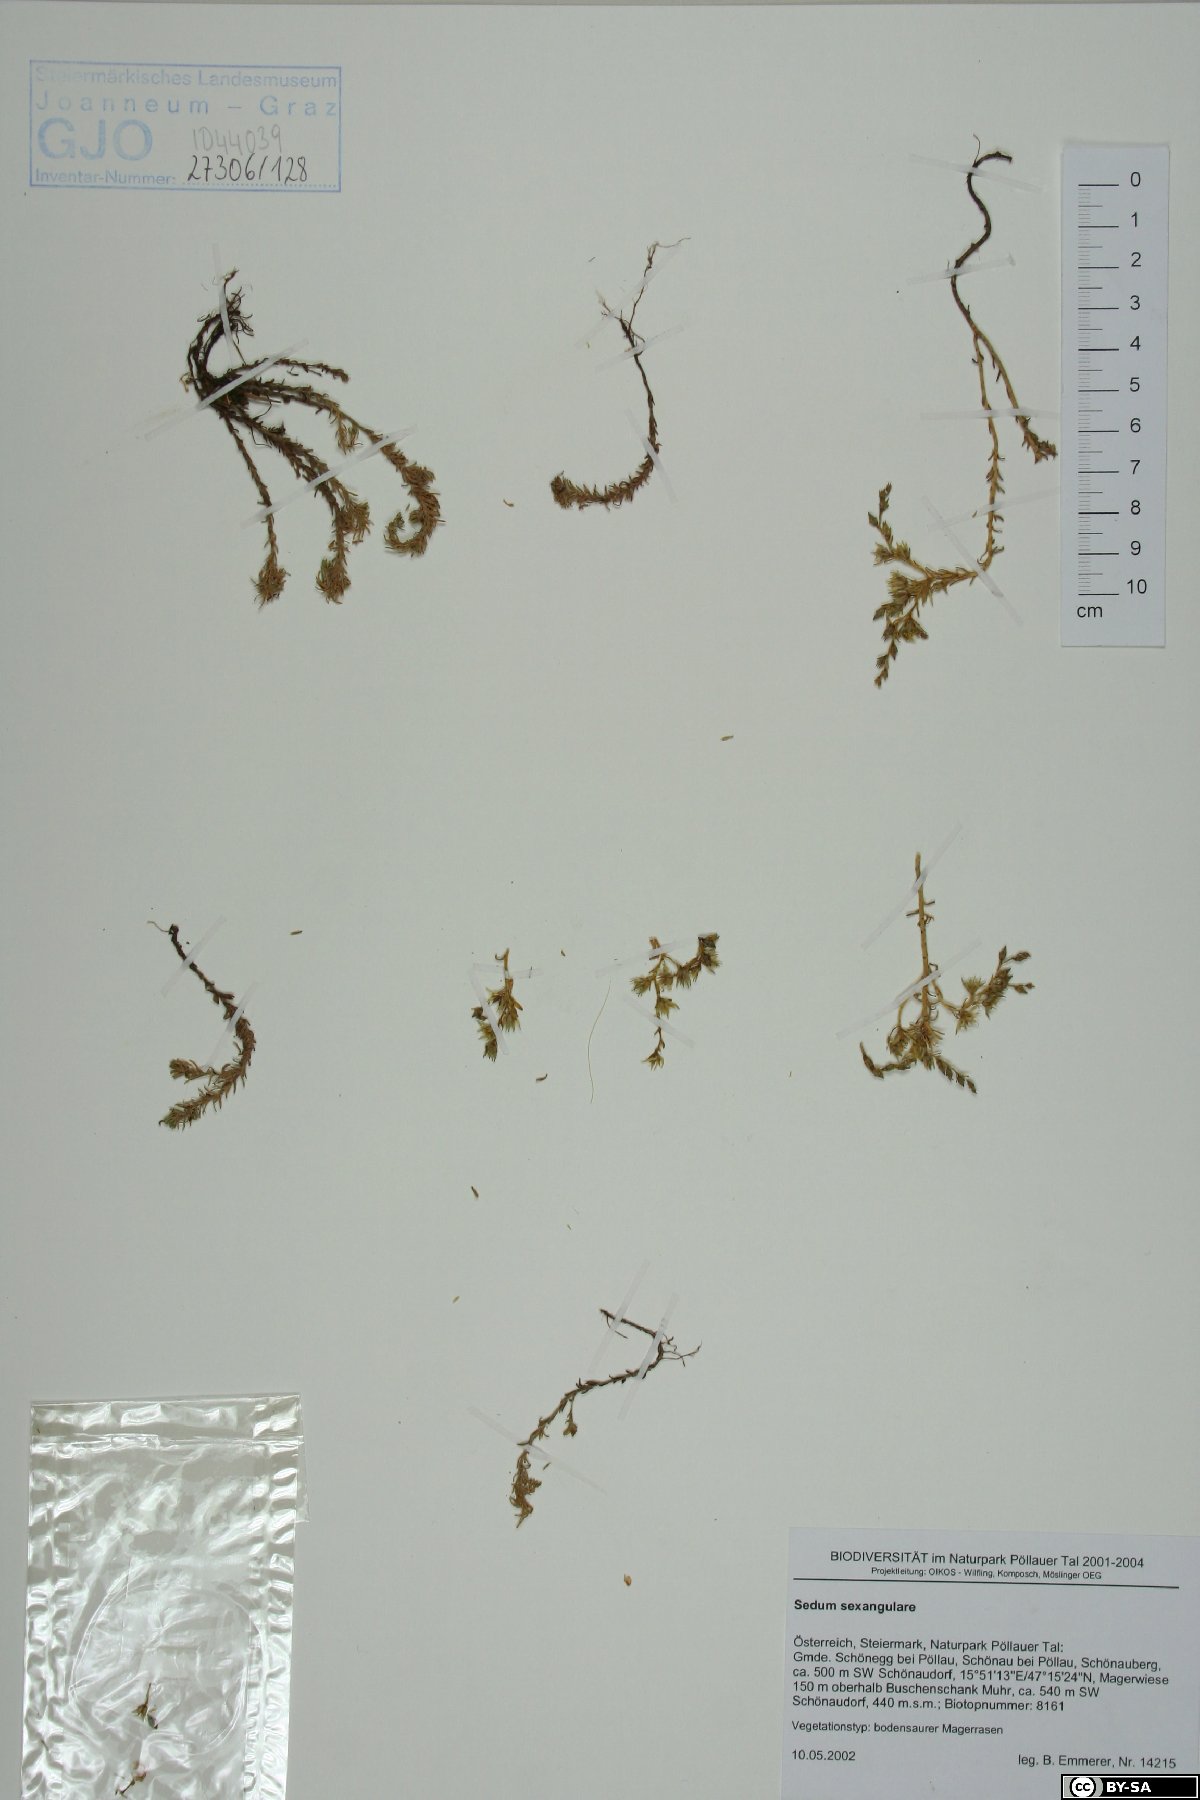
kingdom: Plantae
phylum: Tracheophyta
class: Magnoliopsida
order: Saxifragales
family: Crassulaceae
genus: Sedum
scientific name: Sedum sexangulare
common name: Tasteless stonecrop
